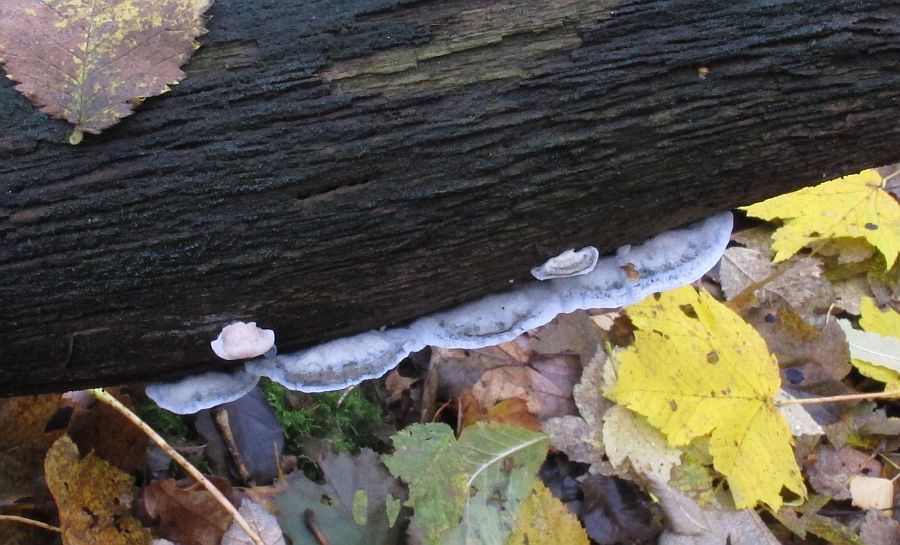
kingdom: Fungi
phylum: Basidiomycota
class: Agaricomycetes
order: Polyporales
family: Polyporaceae
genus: Cyanosporus
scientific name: Cyanosporus alni
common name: blegblå kødporesvamp
